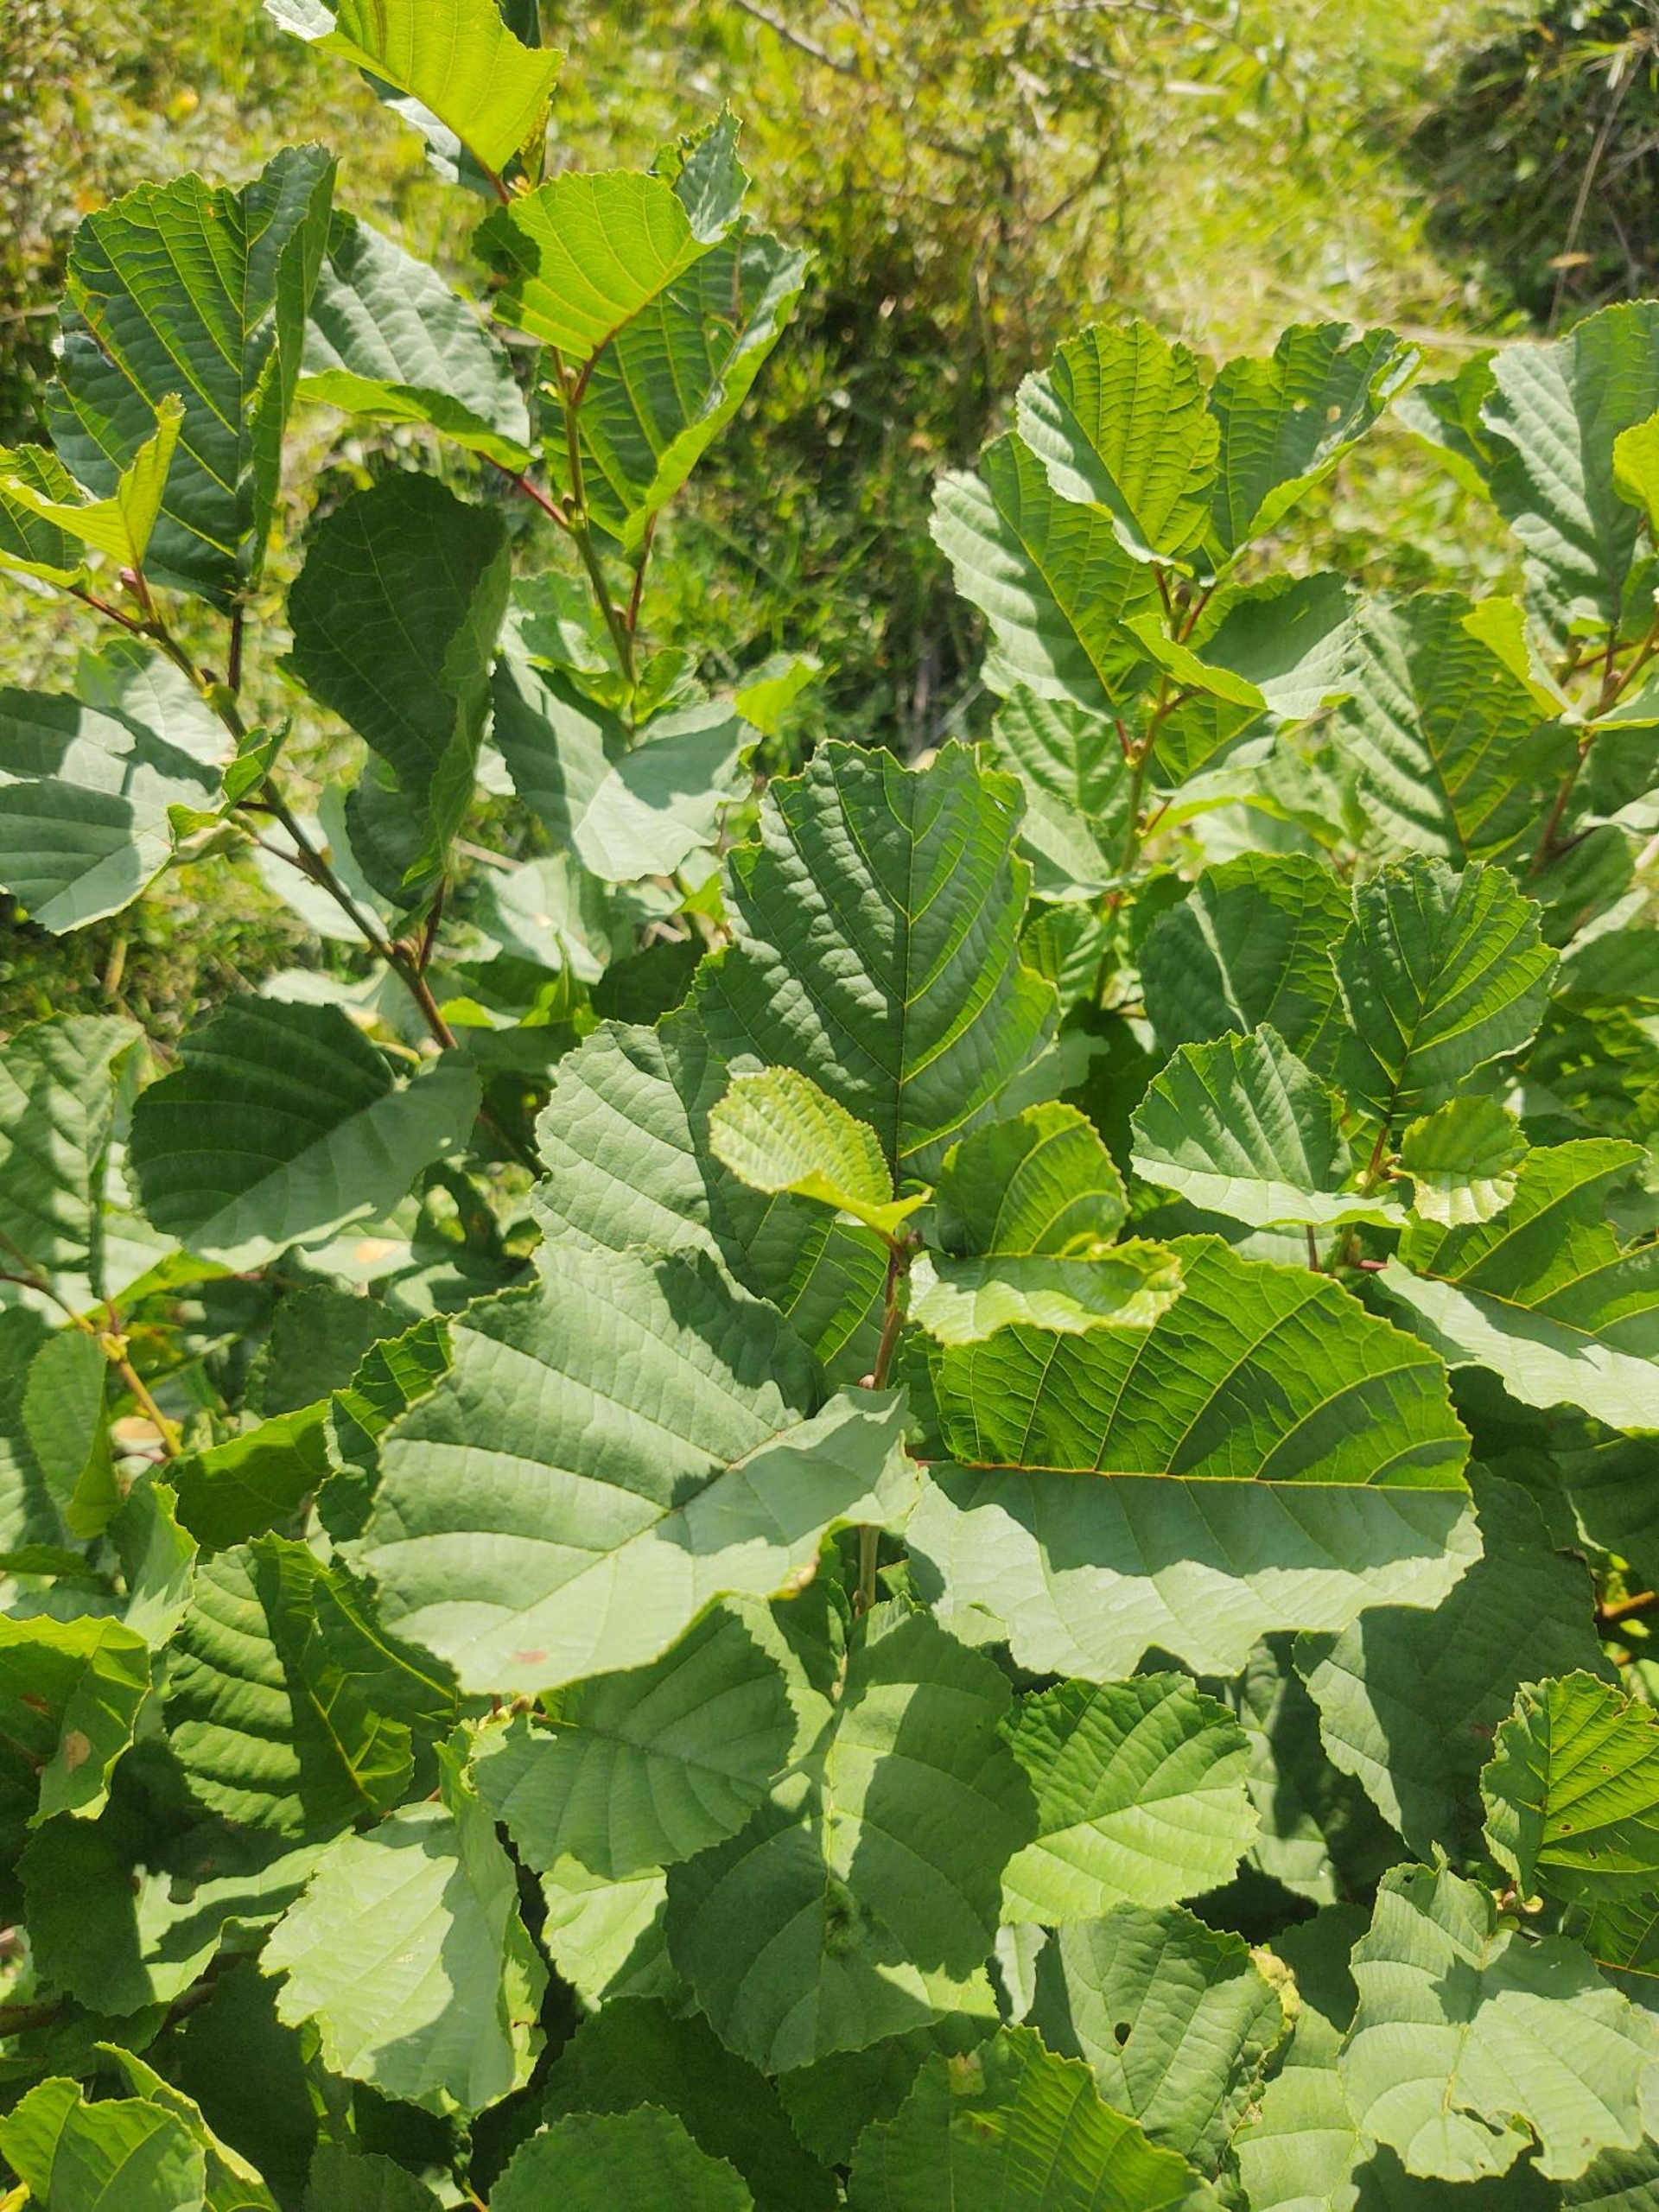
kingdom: Plantae
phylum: Tracheophyta
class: Magnoliopsida
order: Fagales
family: Betulaceae
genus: Alnus
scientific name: Alnus glutinosa
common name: Rød-el
